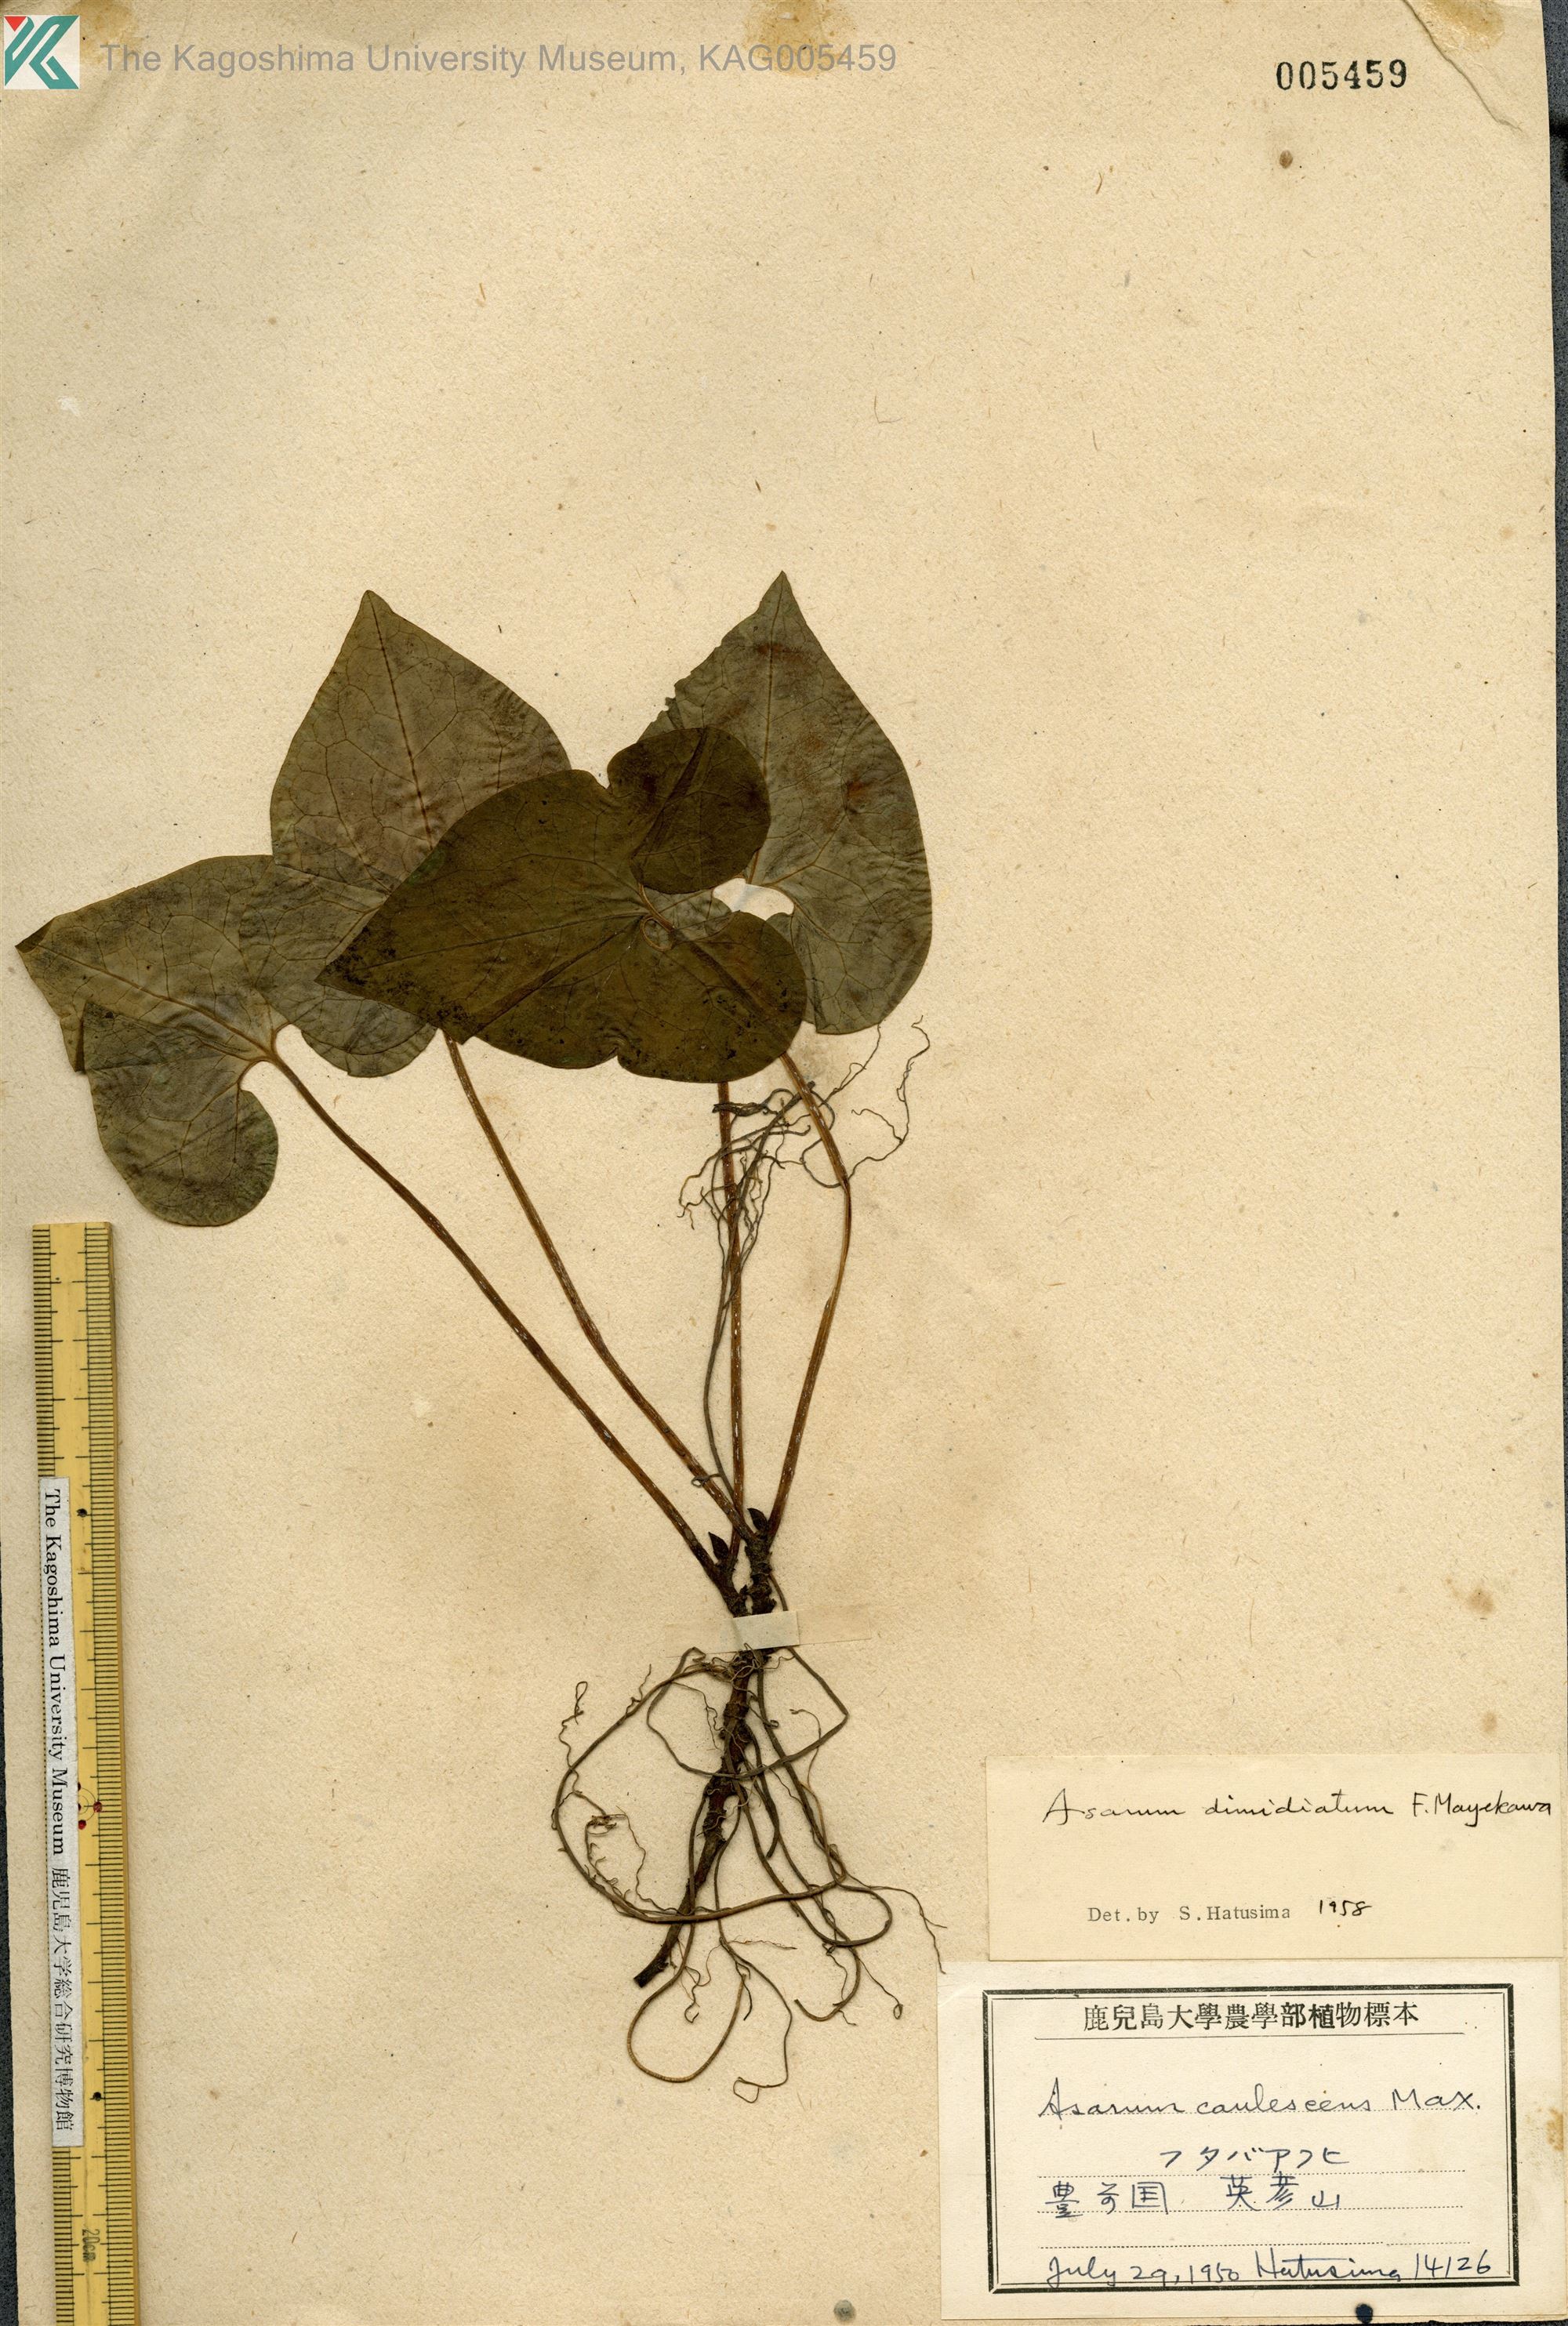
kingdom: Plantae
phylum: Tracheophyta
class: Magnoliopsida
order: Piperales
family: Aristolochiaceae
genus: Asarum
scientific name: Asarum sieboldii
